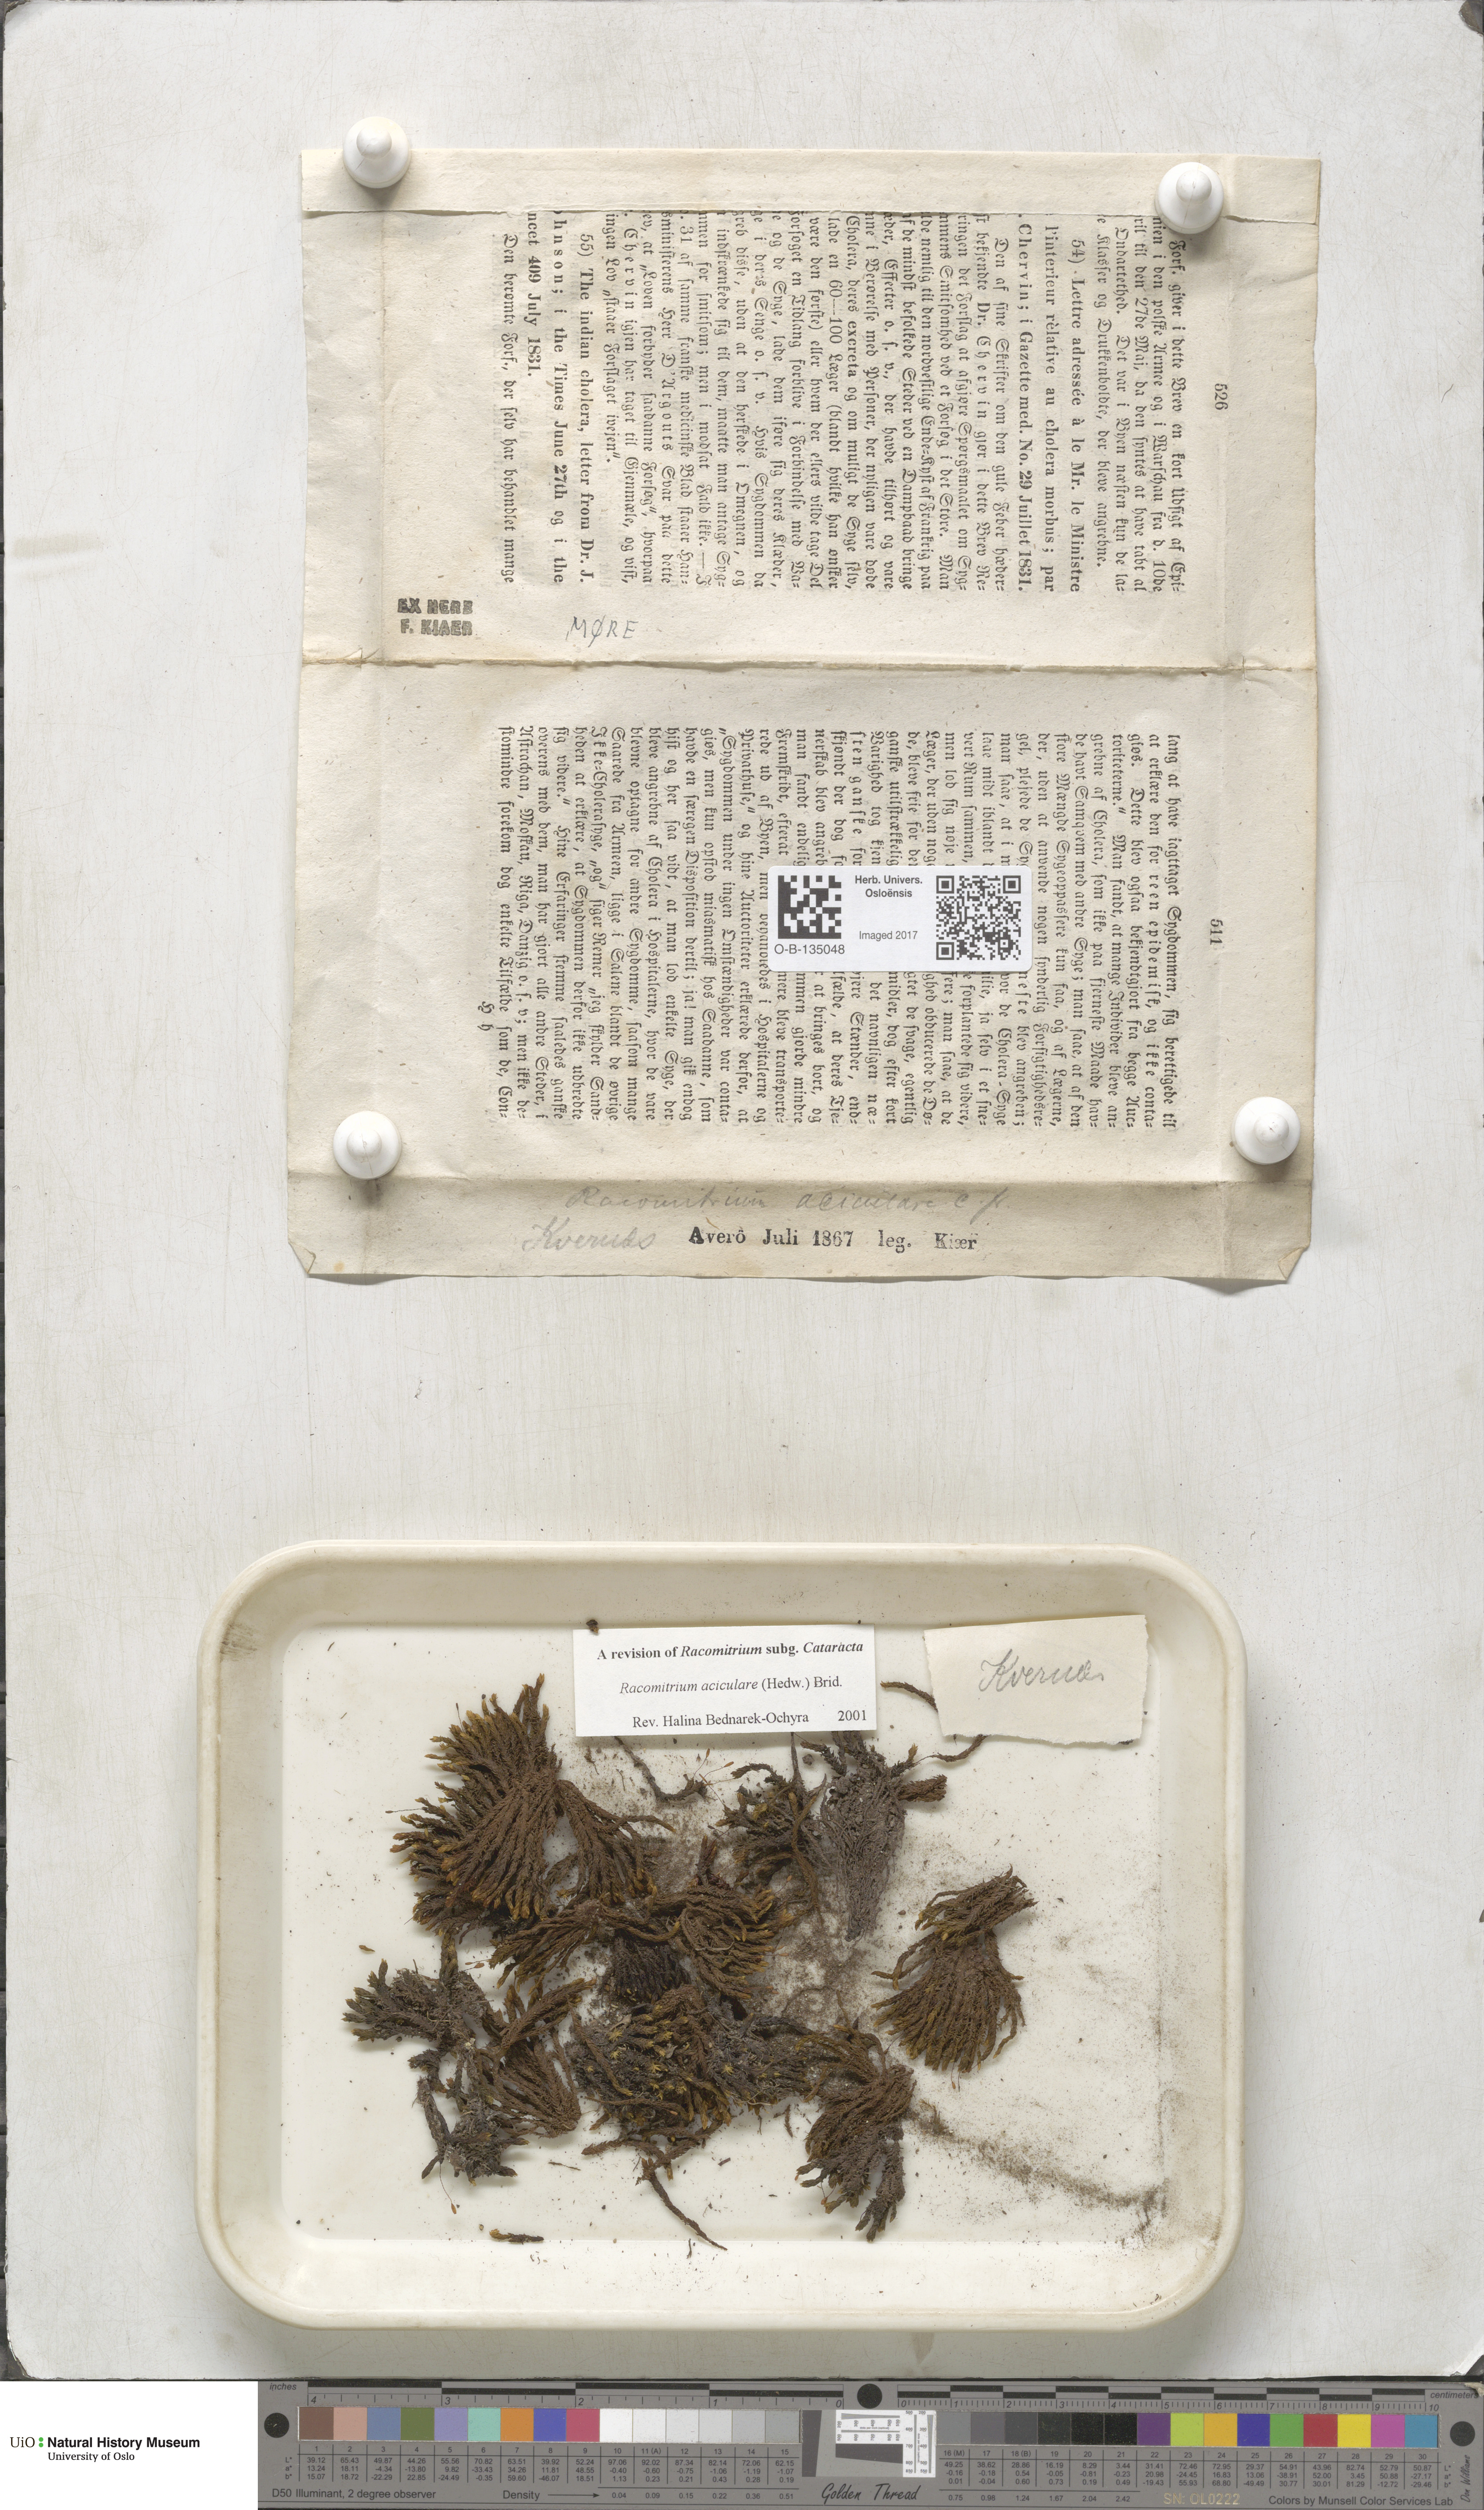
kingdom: Plantae
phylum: Bryophyta
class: Bryopsida
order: Grimmiales
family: Grimmiaceae
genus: Codriophorus
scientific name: Codriophorus acicularis
